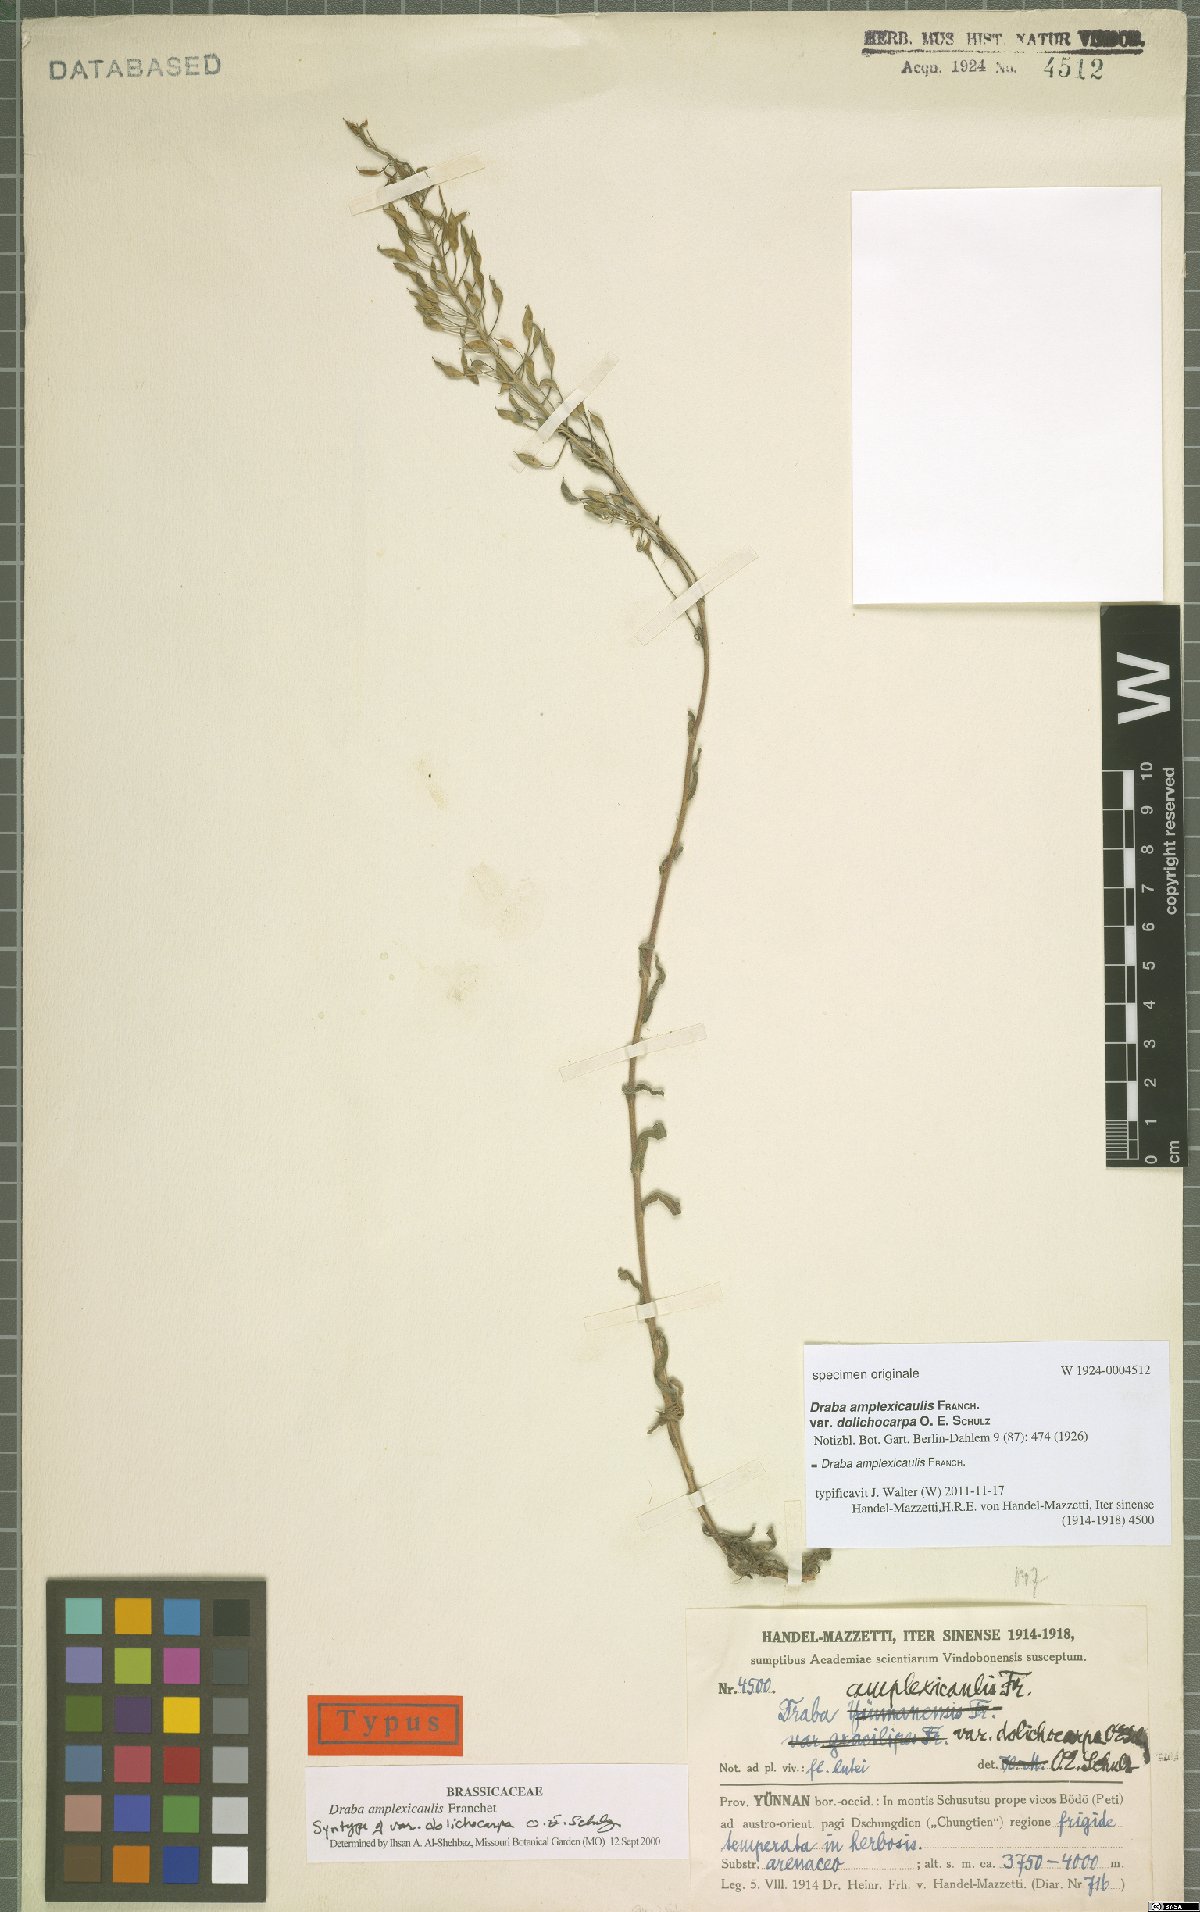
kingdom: Plantae
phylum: Tracheophyta
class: Magnoliopsida
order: Brassicales
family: Brassicaceae
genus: Draba
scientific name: Draba amplexicaulis
